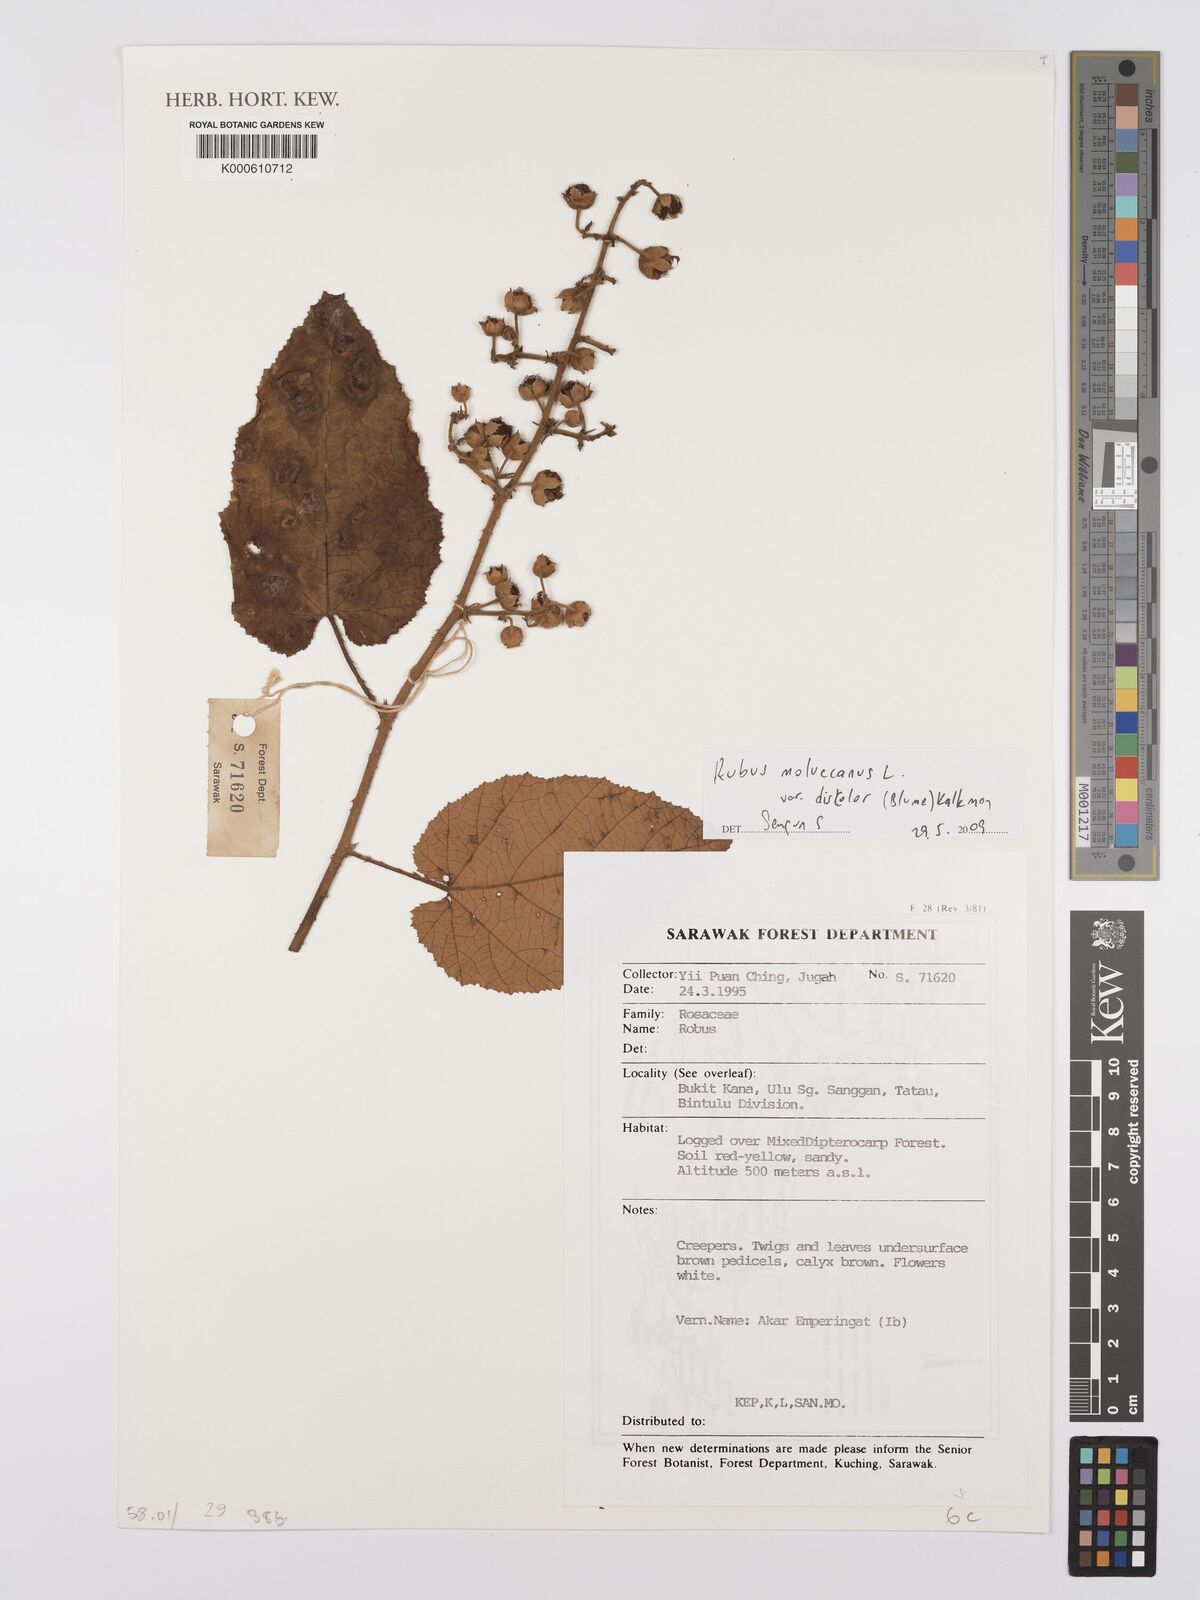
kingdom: Plantae
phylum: Tracheophyta
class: Magnoliopsida
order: Rosales
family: Rosaceae
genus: Rubus
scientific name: Rubus moluccanus
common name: Wild raspberry
